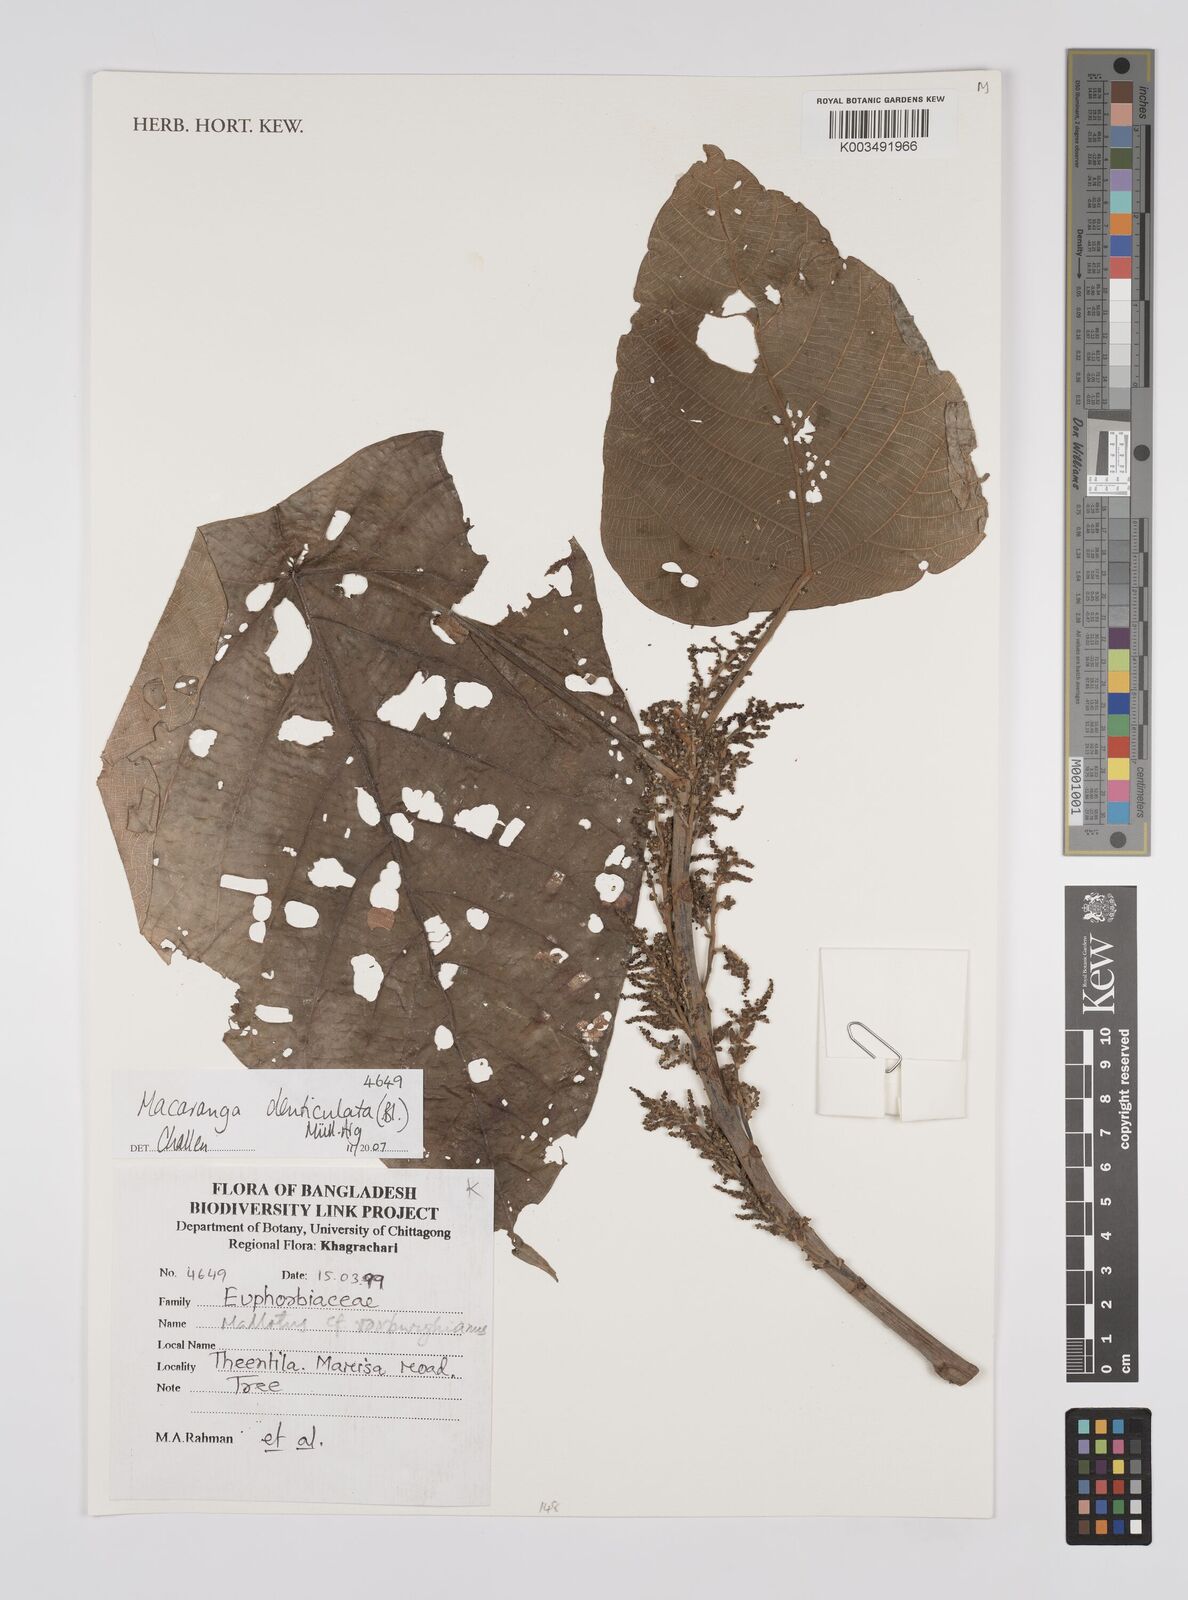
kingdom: Plantae
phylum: Tracheophyta
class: Magnoliopsida
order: Malpighiales
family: Euphorbiaceae
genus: Macaranga
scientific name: Macaranga denticulata
